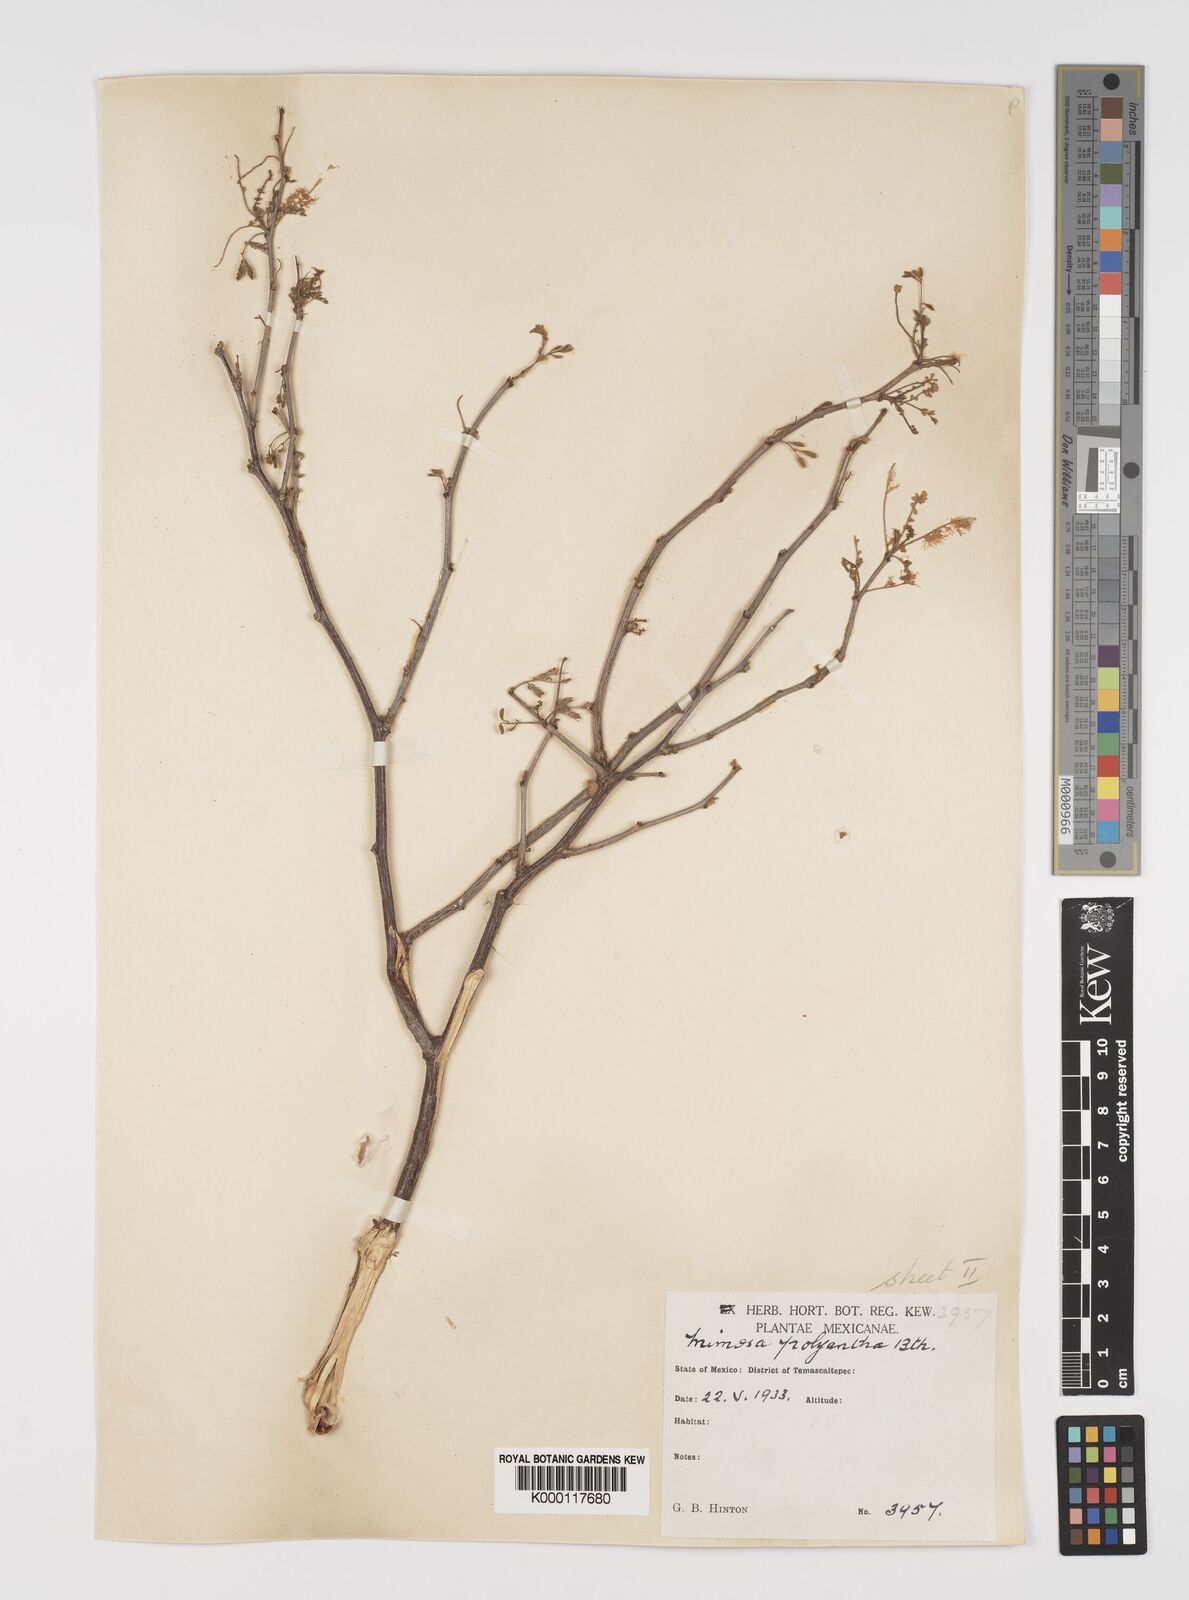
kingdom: Plantae
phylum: Tracheophyta
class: Magnoliopsida
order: Fabales
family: Fabaceae
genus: Mimosa
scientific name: Mimosa polyantha
